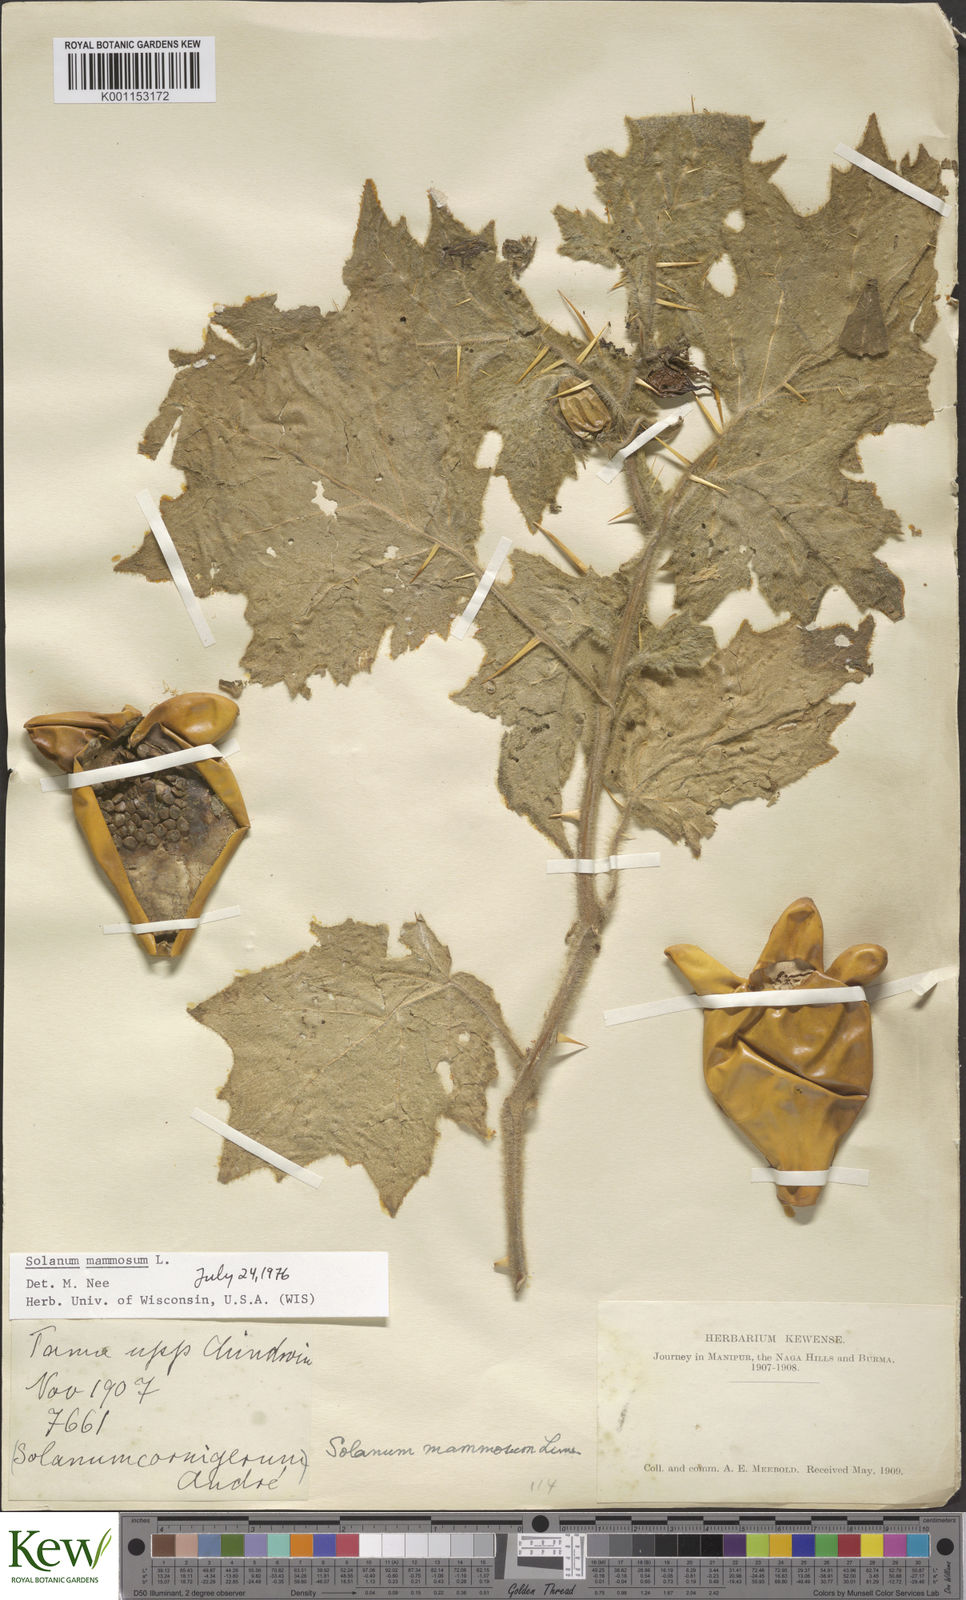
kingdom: Plantae
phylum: Tracheophyta
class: Magnoliopsida
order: Solanales
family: Solanaceae
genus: Solanum
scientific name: Solanum mammosum
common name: Nipple fruit
